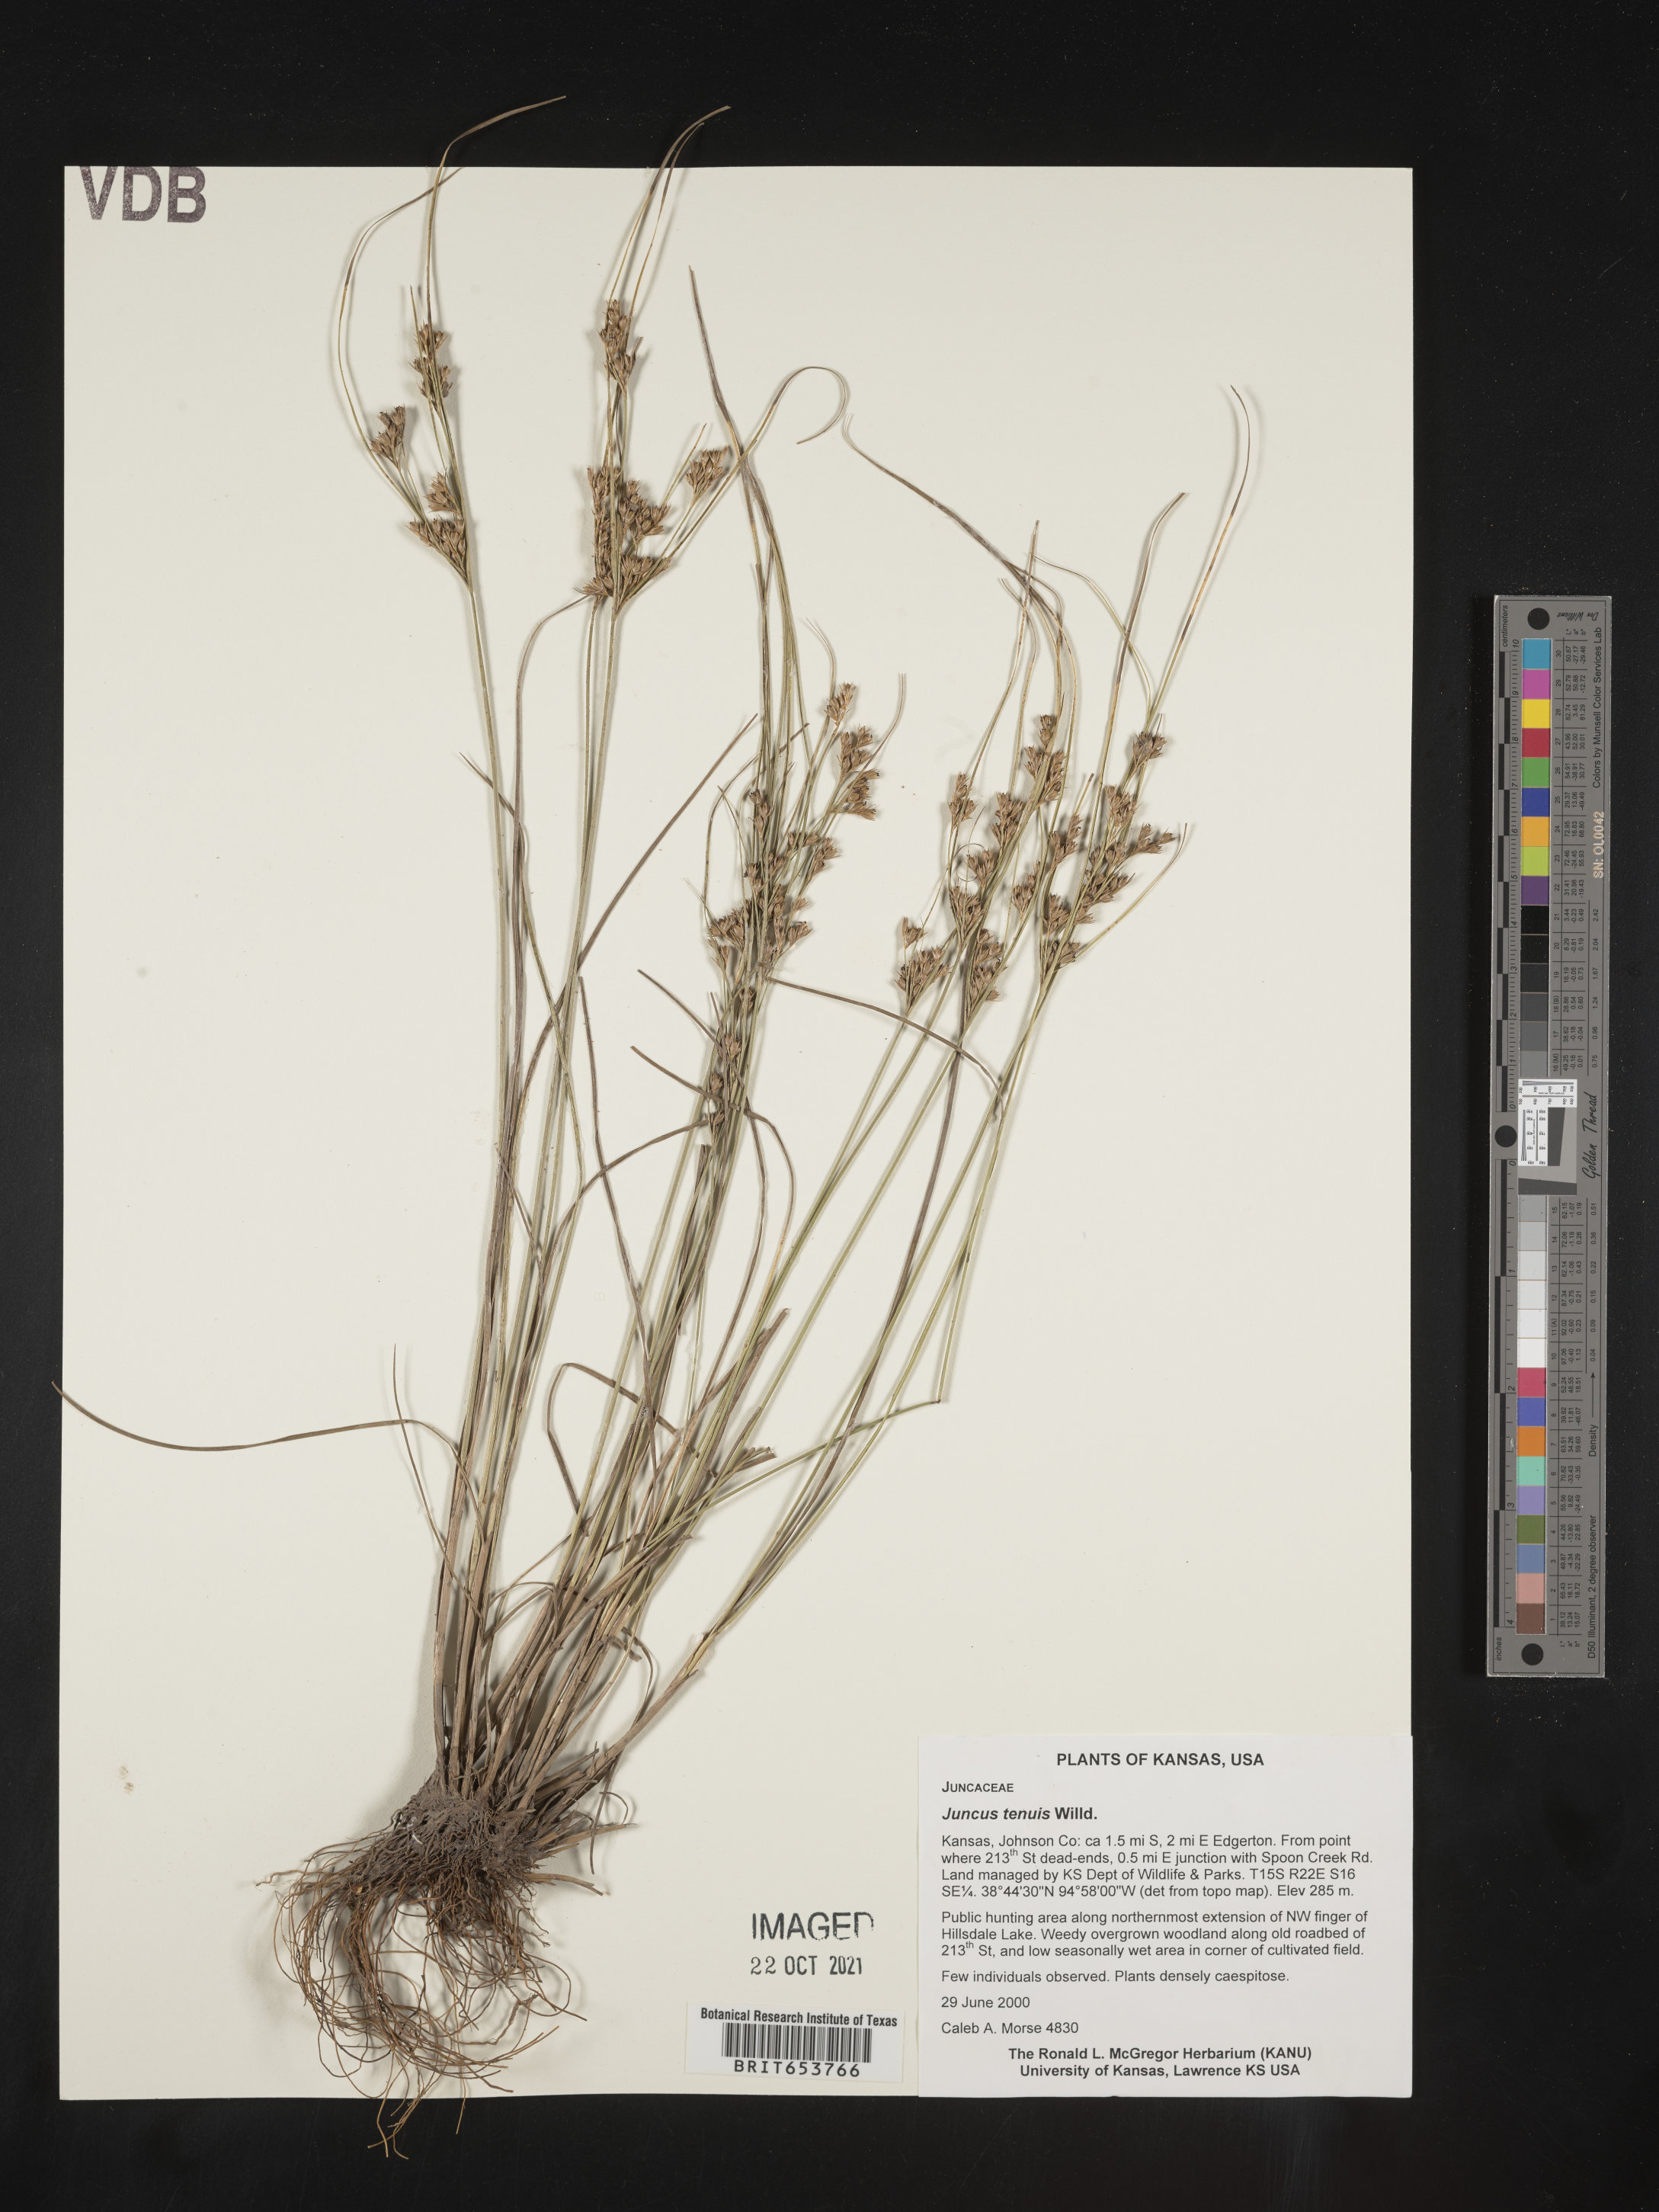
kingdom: Plantae
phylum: Tracheophyta
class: Liliopsida
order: Poales
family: Juncaceae
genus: Juncus
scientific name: Juncus tenuis
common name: Slender rush
